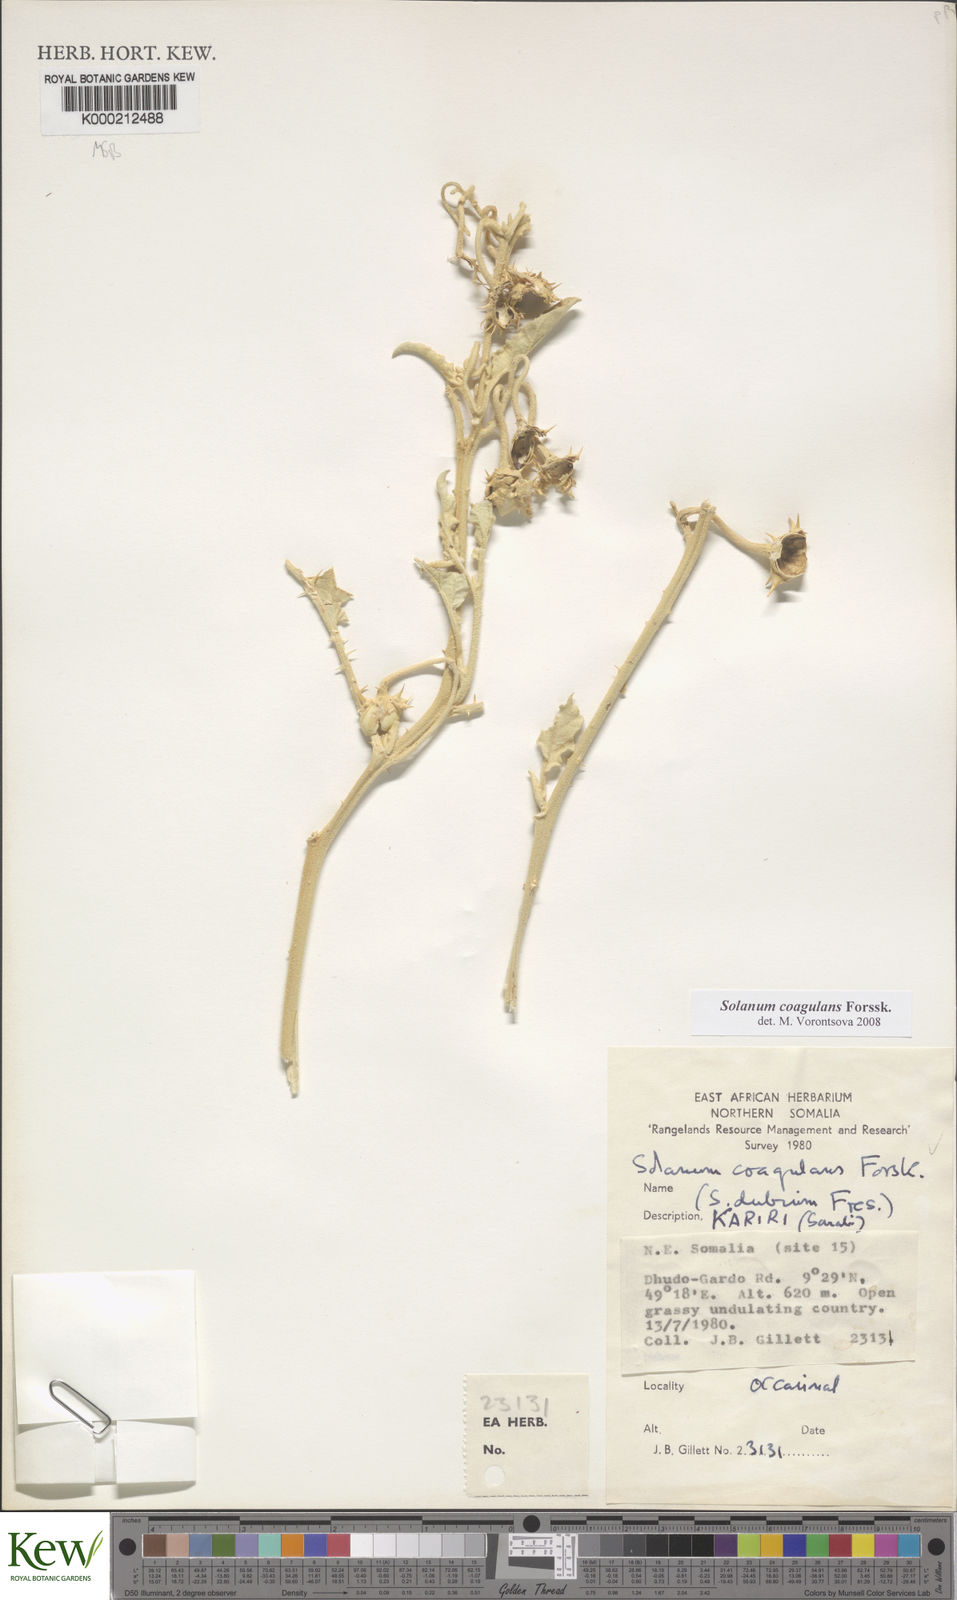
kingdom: Plantae
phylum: Tracheophyta
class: Magnoliopsida
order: Solanales
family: Solanaceae
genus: Solanum
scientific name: Solanum coagulans
